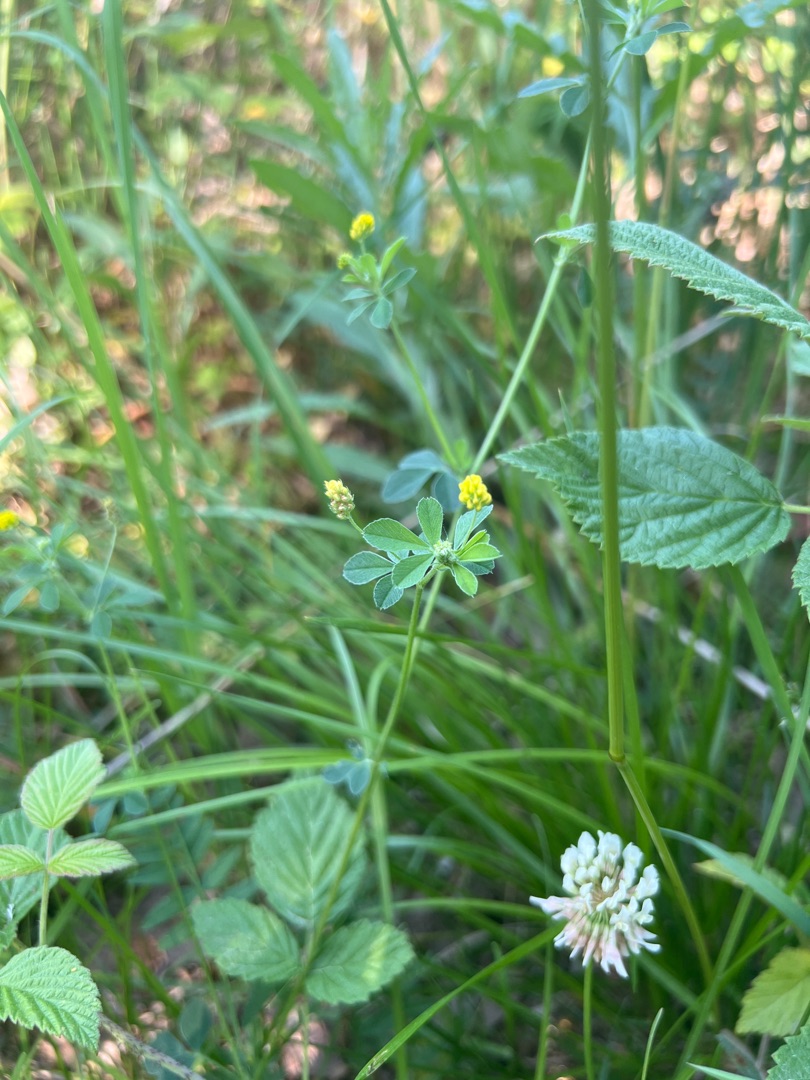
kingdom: Plantae
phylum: Tracheophyta
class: Magnoliopsida
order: Fabales
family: Fabaceae
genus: Medicago
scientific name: Medicago lupulina
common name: Humle-sneglebælg
